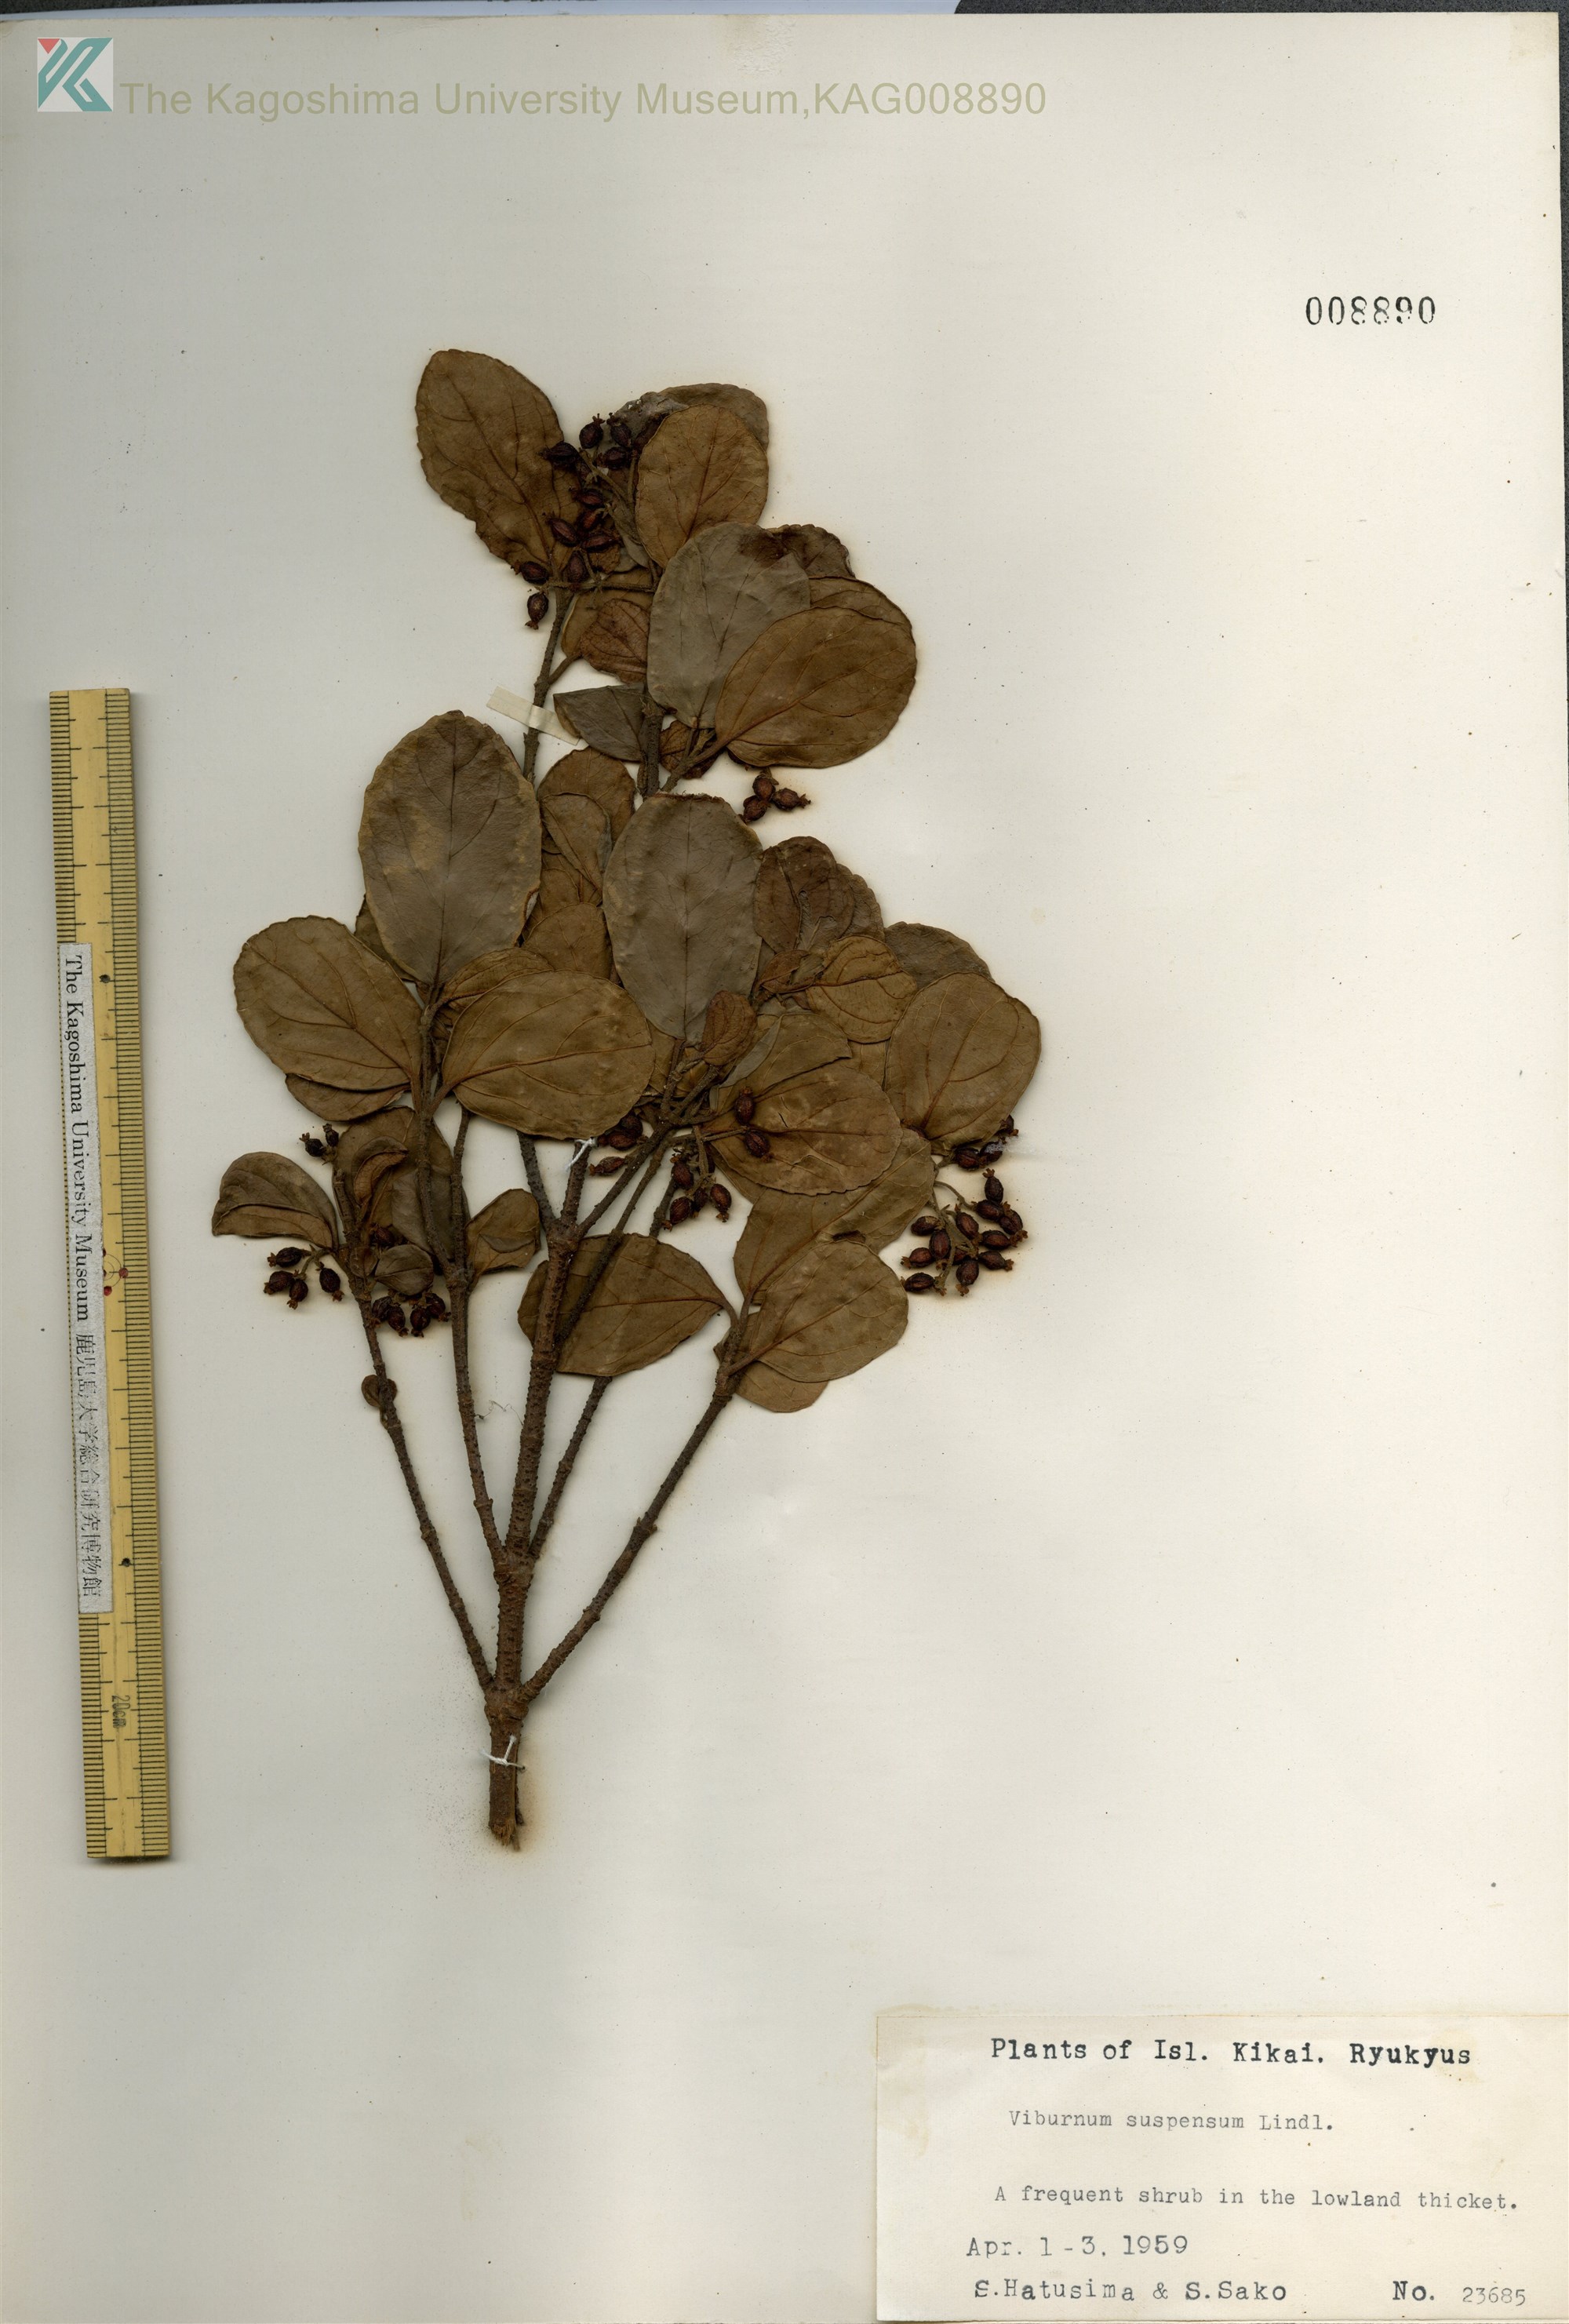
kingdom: Plantae
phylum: Tracheophyta
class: Magnoliopsida
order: Dipsacales
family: Viburnaceae
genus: Viburnum
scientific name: Viburnum suspensum
